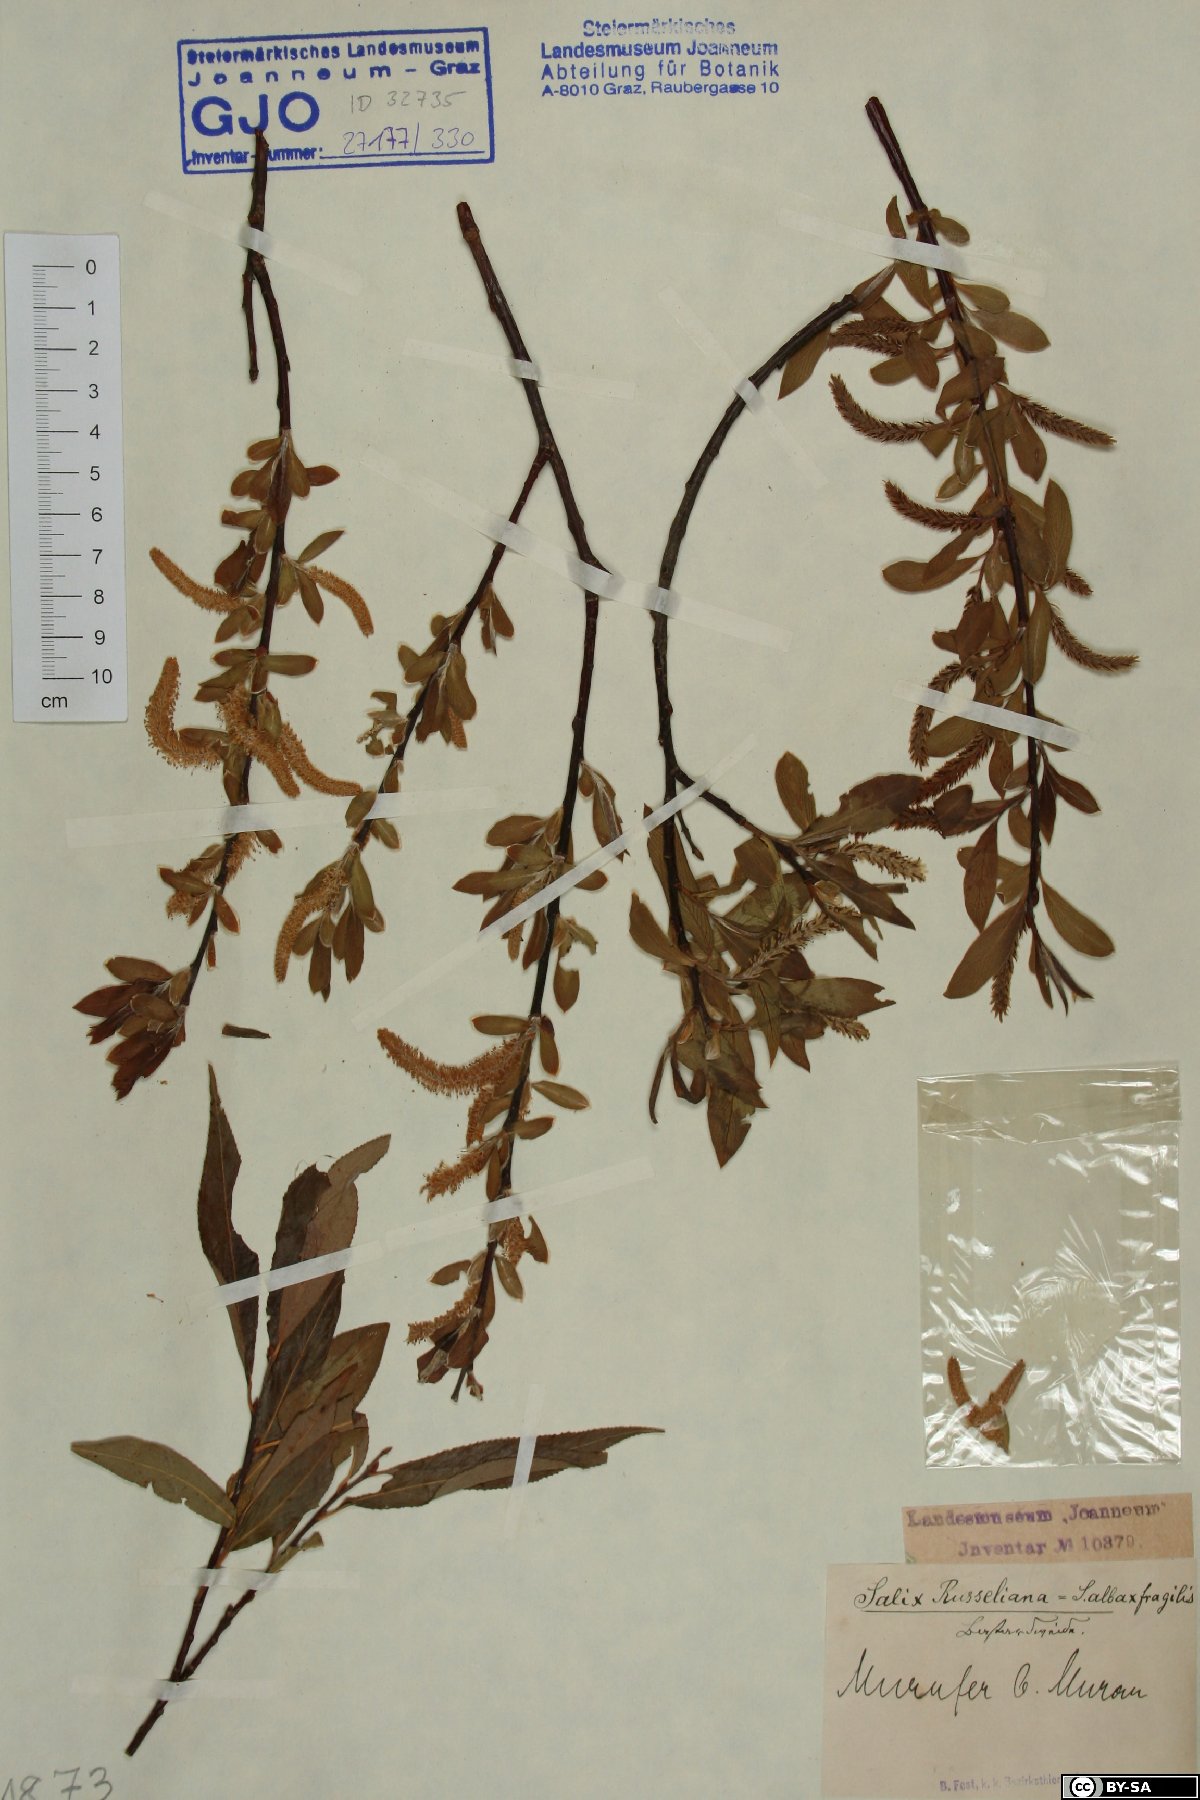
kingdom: Plantae
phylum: Tracheophyta
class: Magnoliopsida
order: Malpighiales
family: Salicaceae
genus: Salix
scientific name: Salix rubens
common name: Hybrid crack willow
